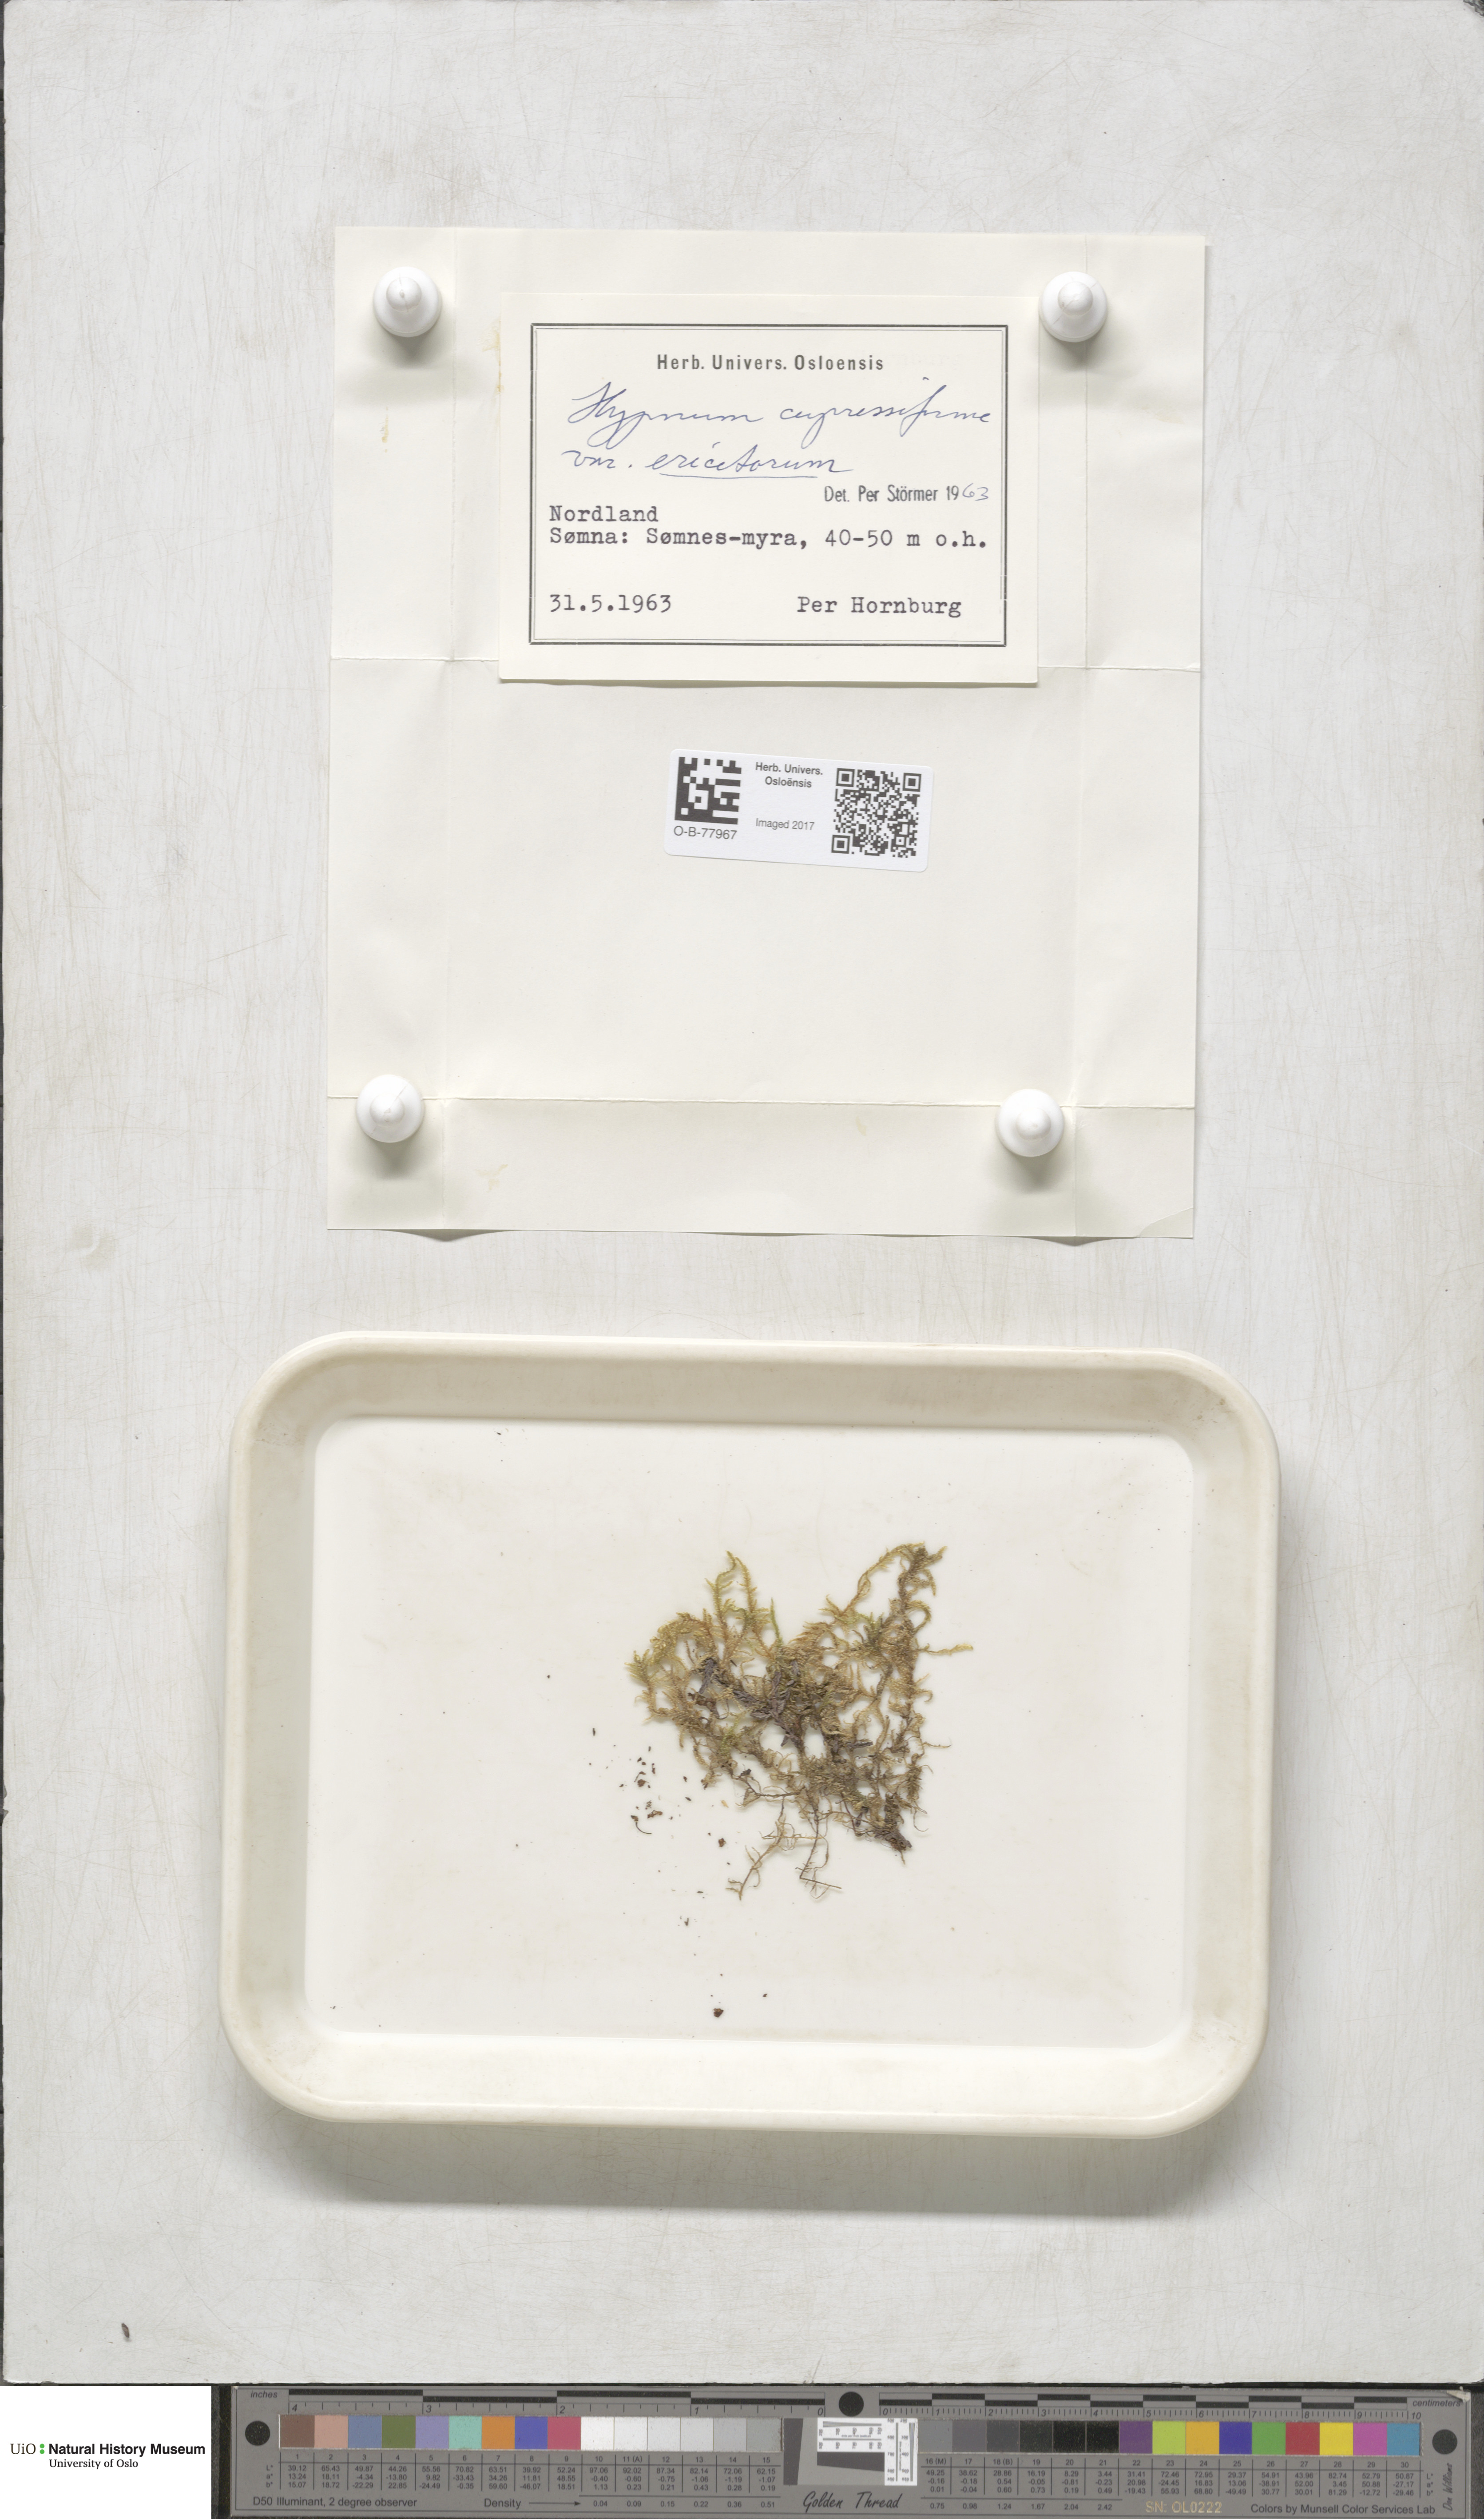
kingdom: Plantae
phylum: Bryophyta
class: Bryopsida
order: Hypnales
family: Hypnaceae
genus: Hypnum
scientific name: Hypnum jutlandicum
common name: Heath plait-moss
